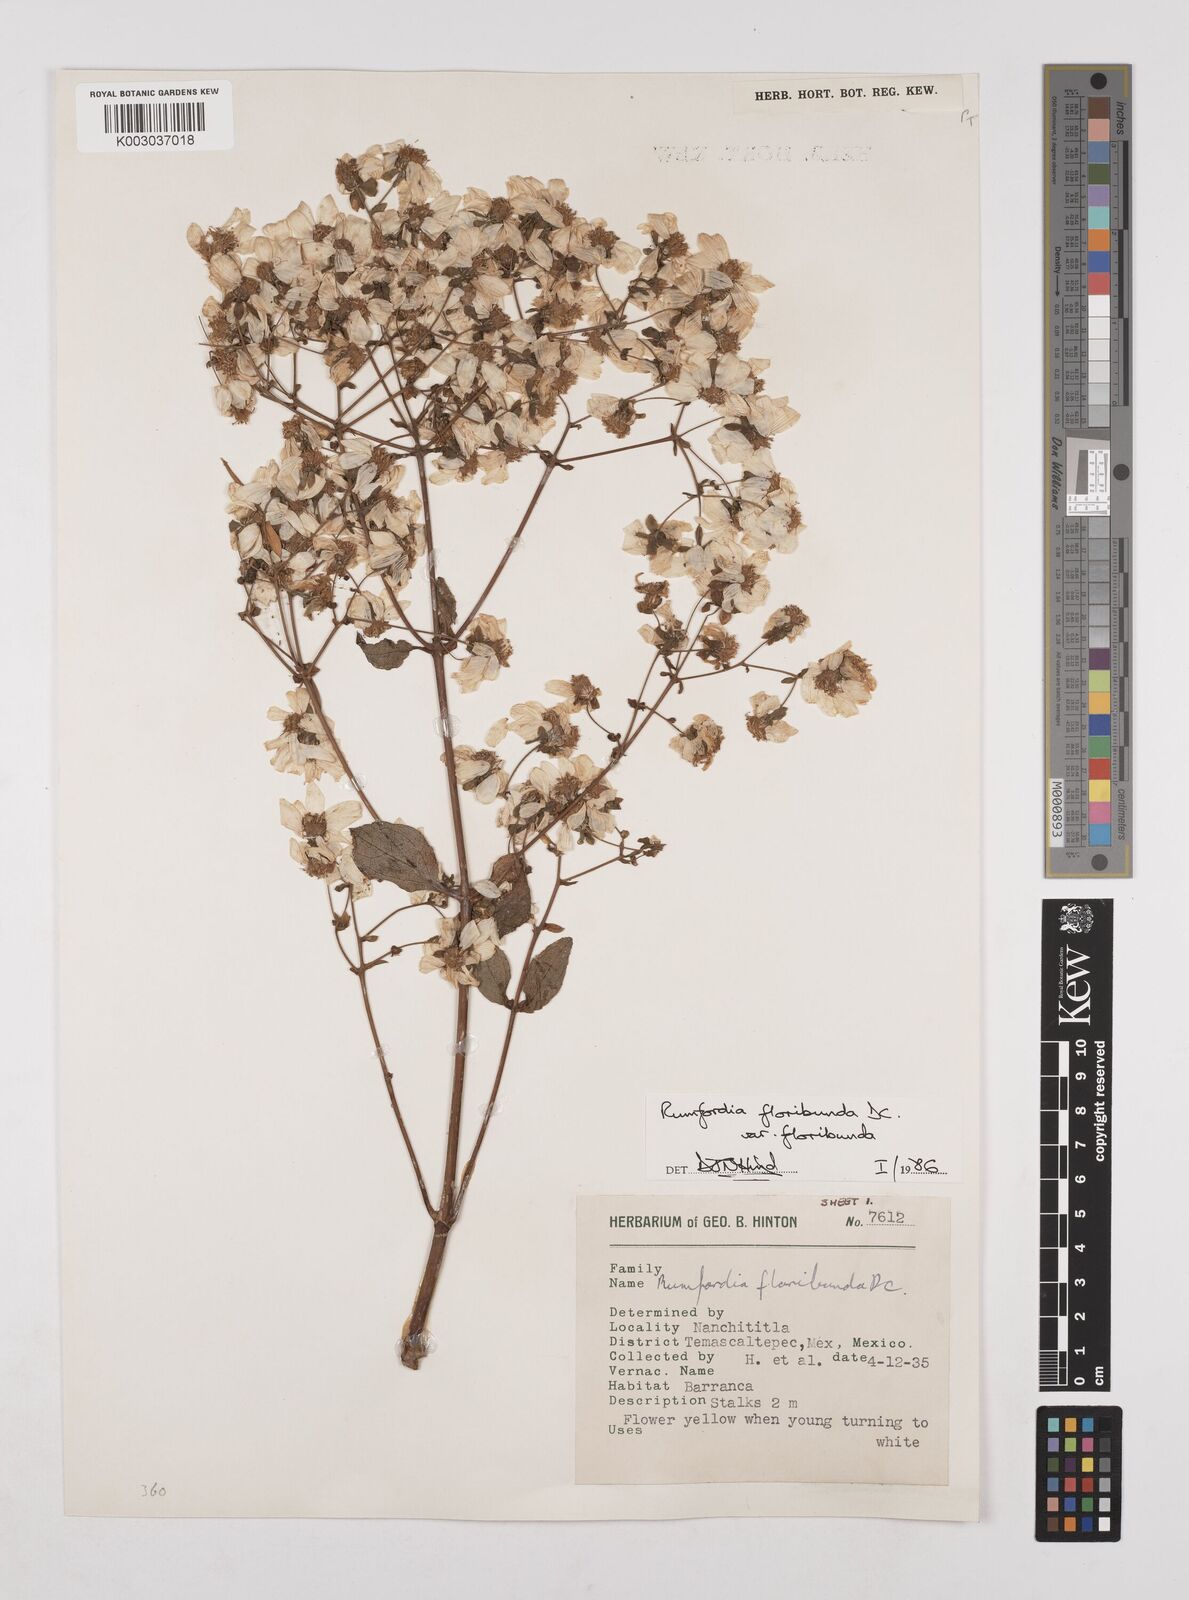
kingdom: Plantae
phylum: Tracheophyta
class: Magnoliopsida
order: Asterales
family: Asteraceae
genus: Rumfordia
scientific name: Rumfordia floribunda
